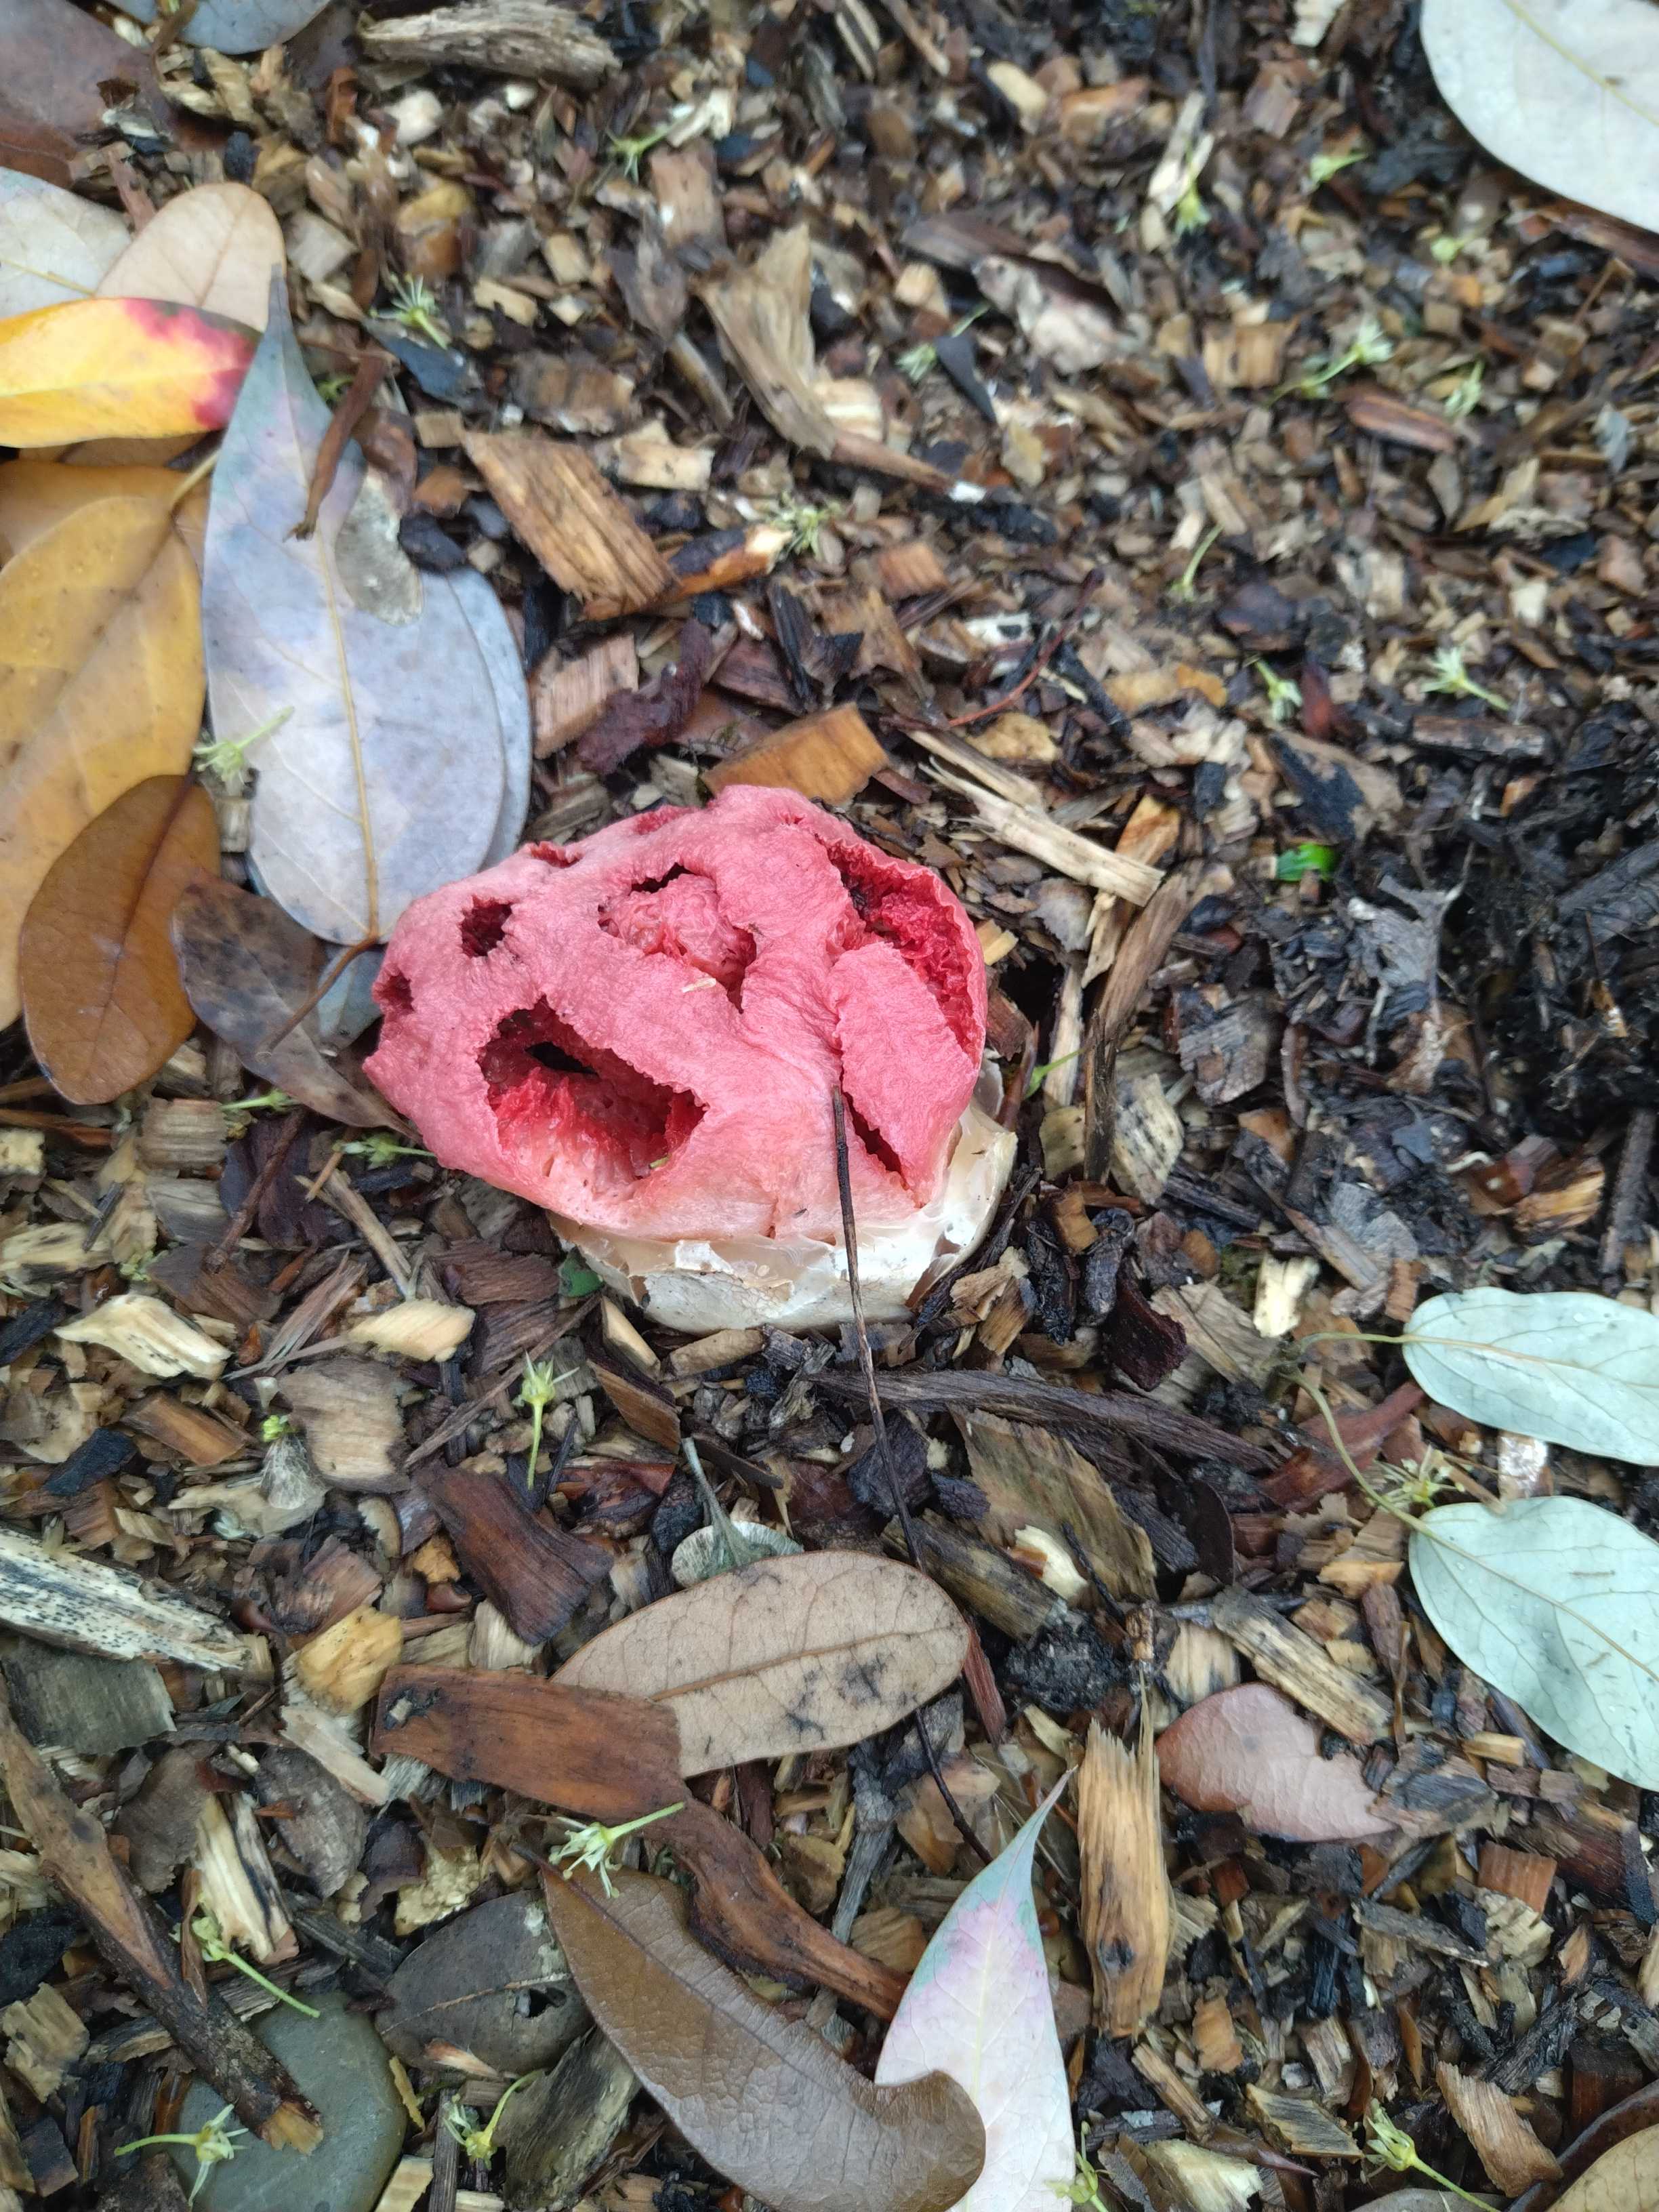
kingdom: Fungi
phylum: Basidiomycota
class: Agaricomycetes
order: Phallales
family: Phallaceae
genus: Clathrus
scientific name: Clathrus ruber
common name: rød gitterkugle
